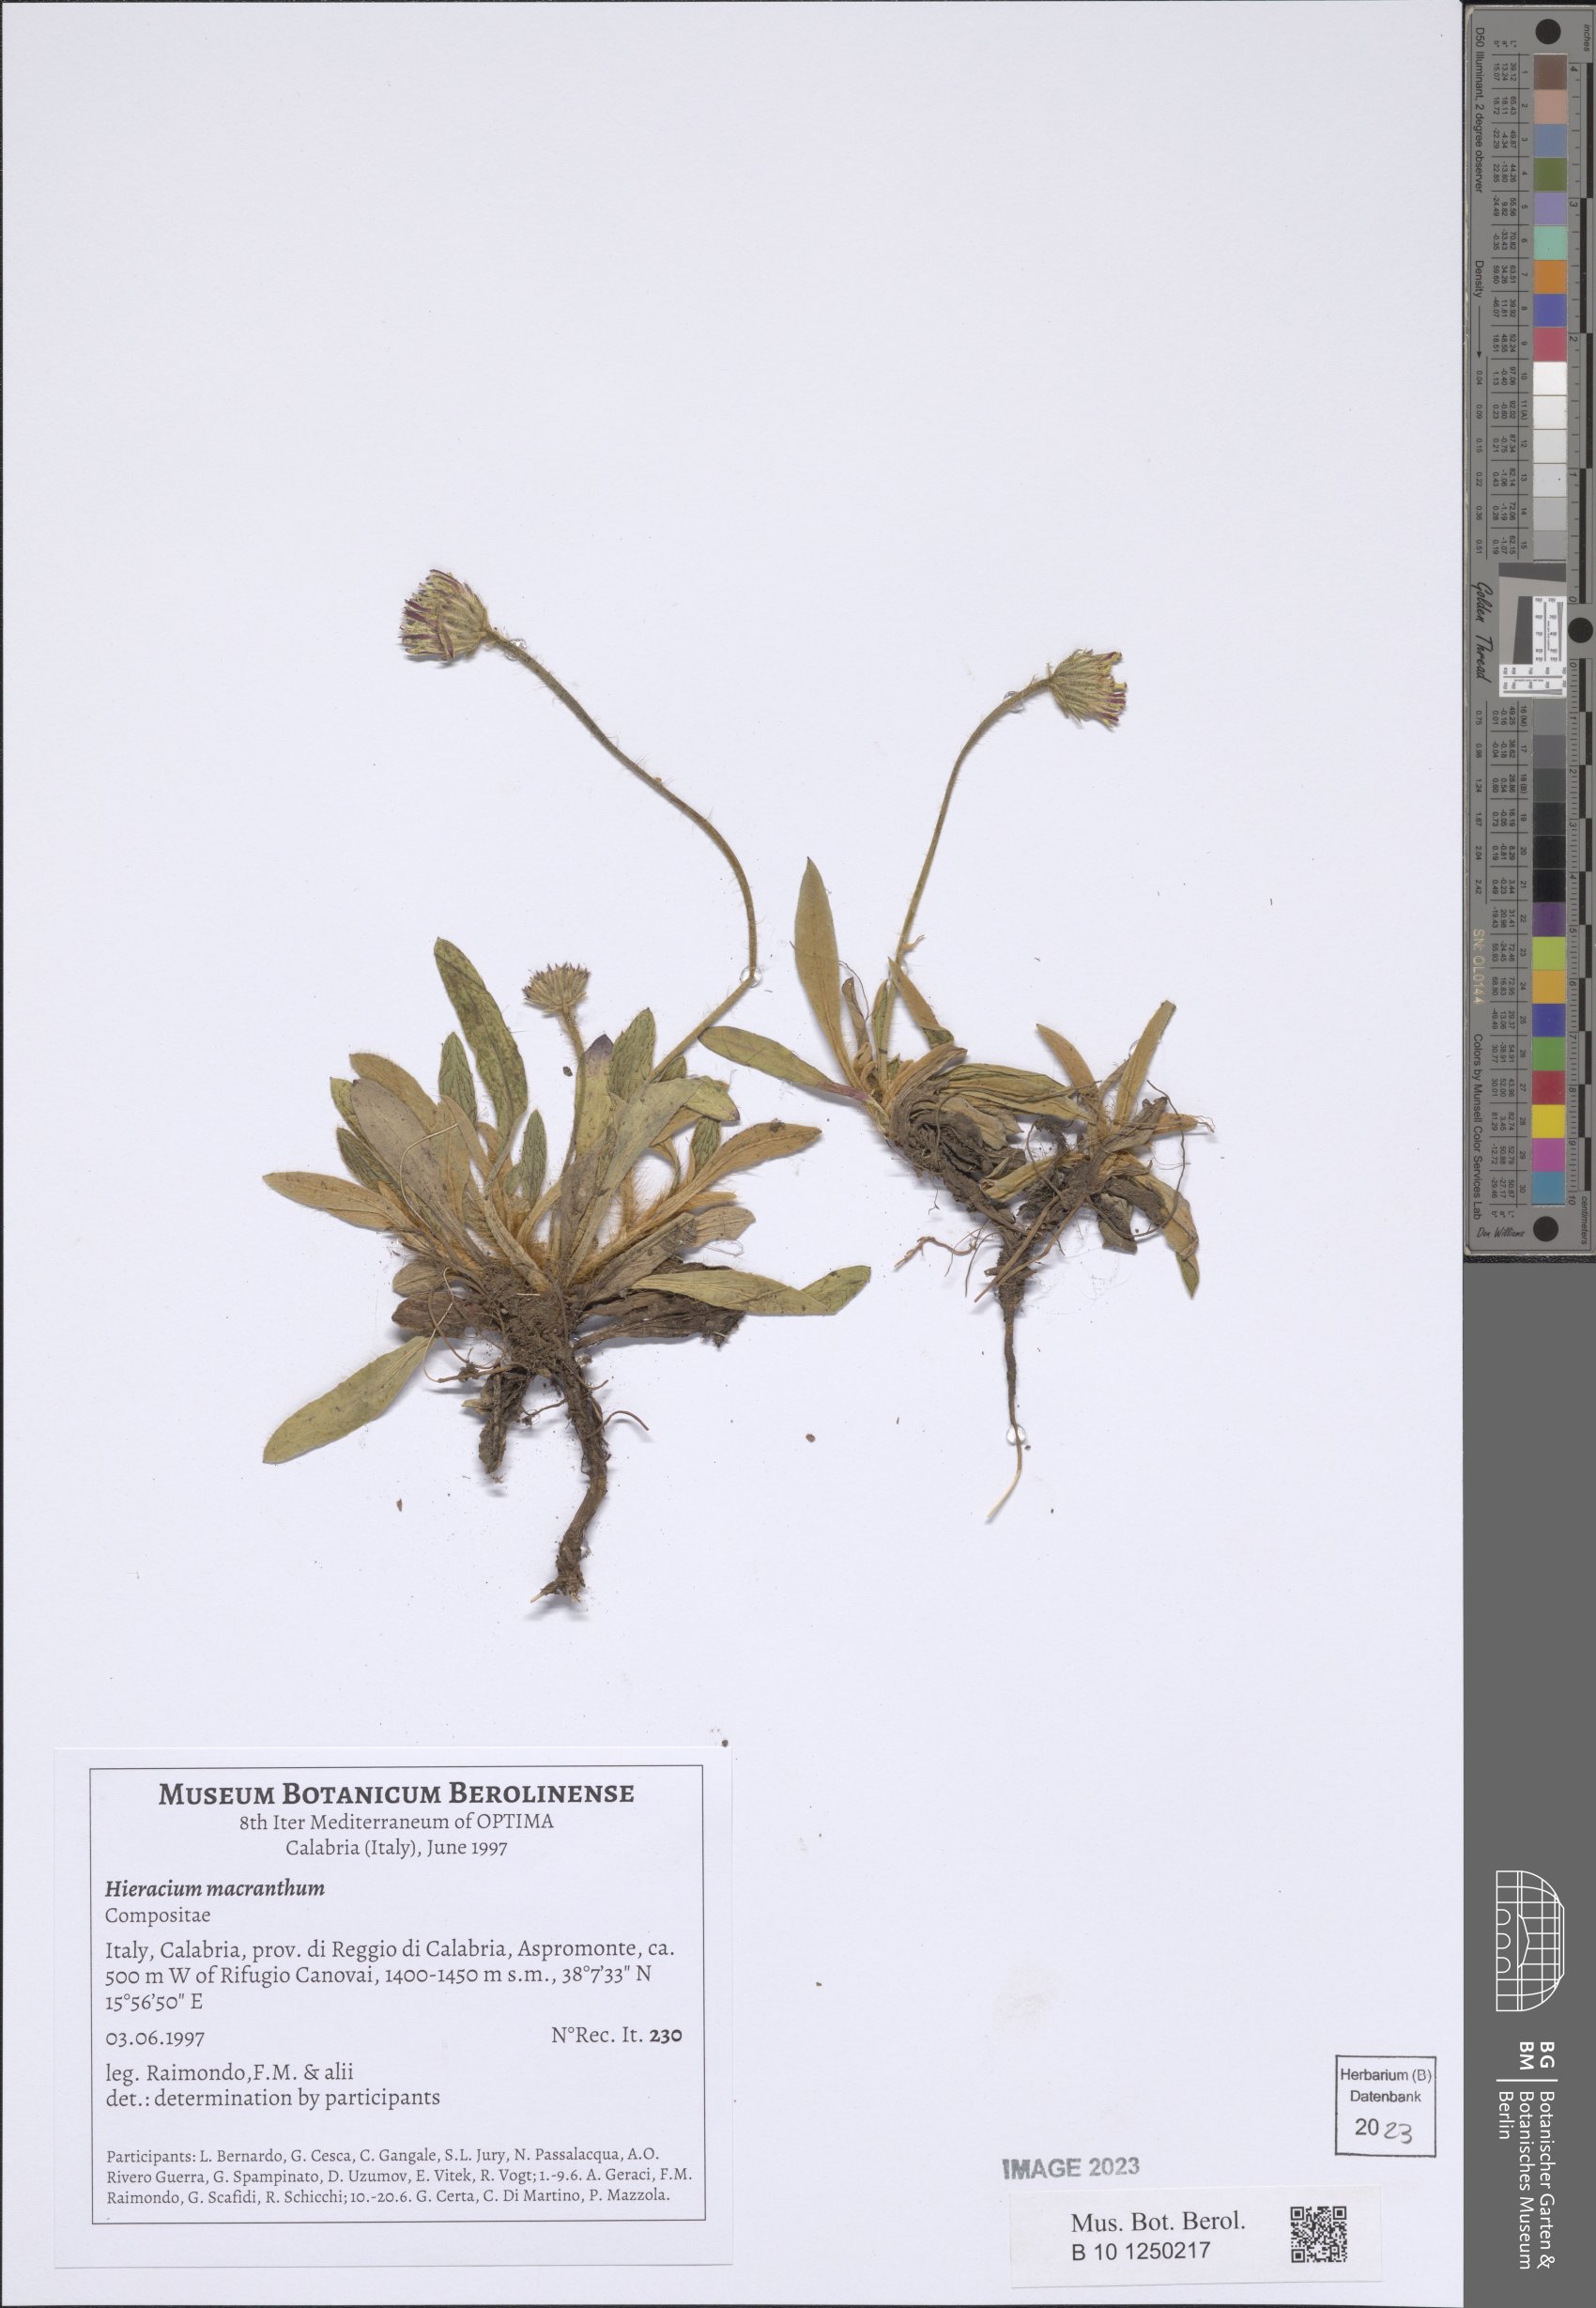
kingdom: Plantae
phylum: Tracheophyta
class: Magnoliopsida
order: Asterales
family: Asteraceae
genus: Pilosella
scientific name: Pilosella hoppeana
